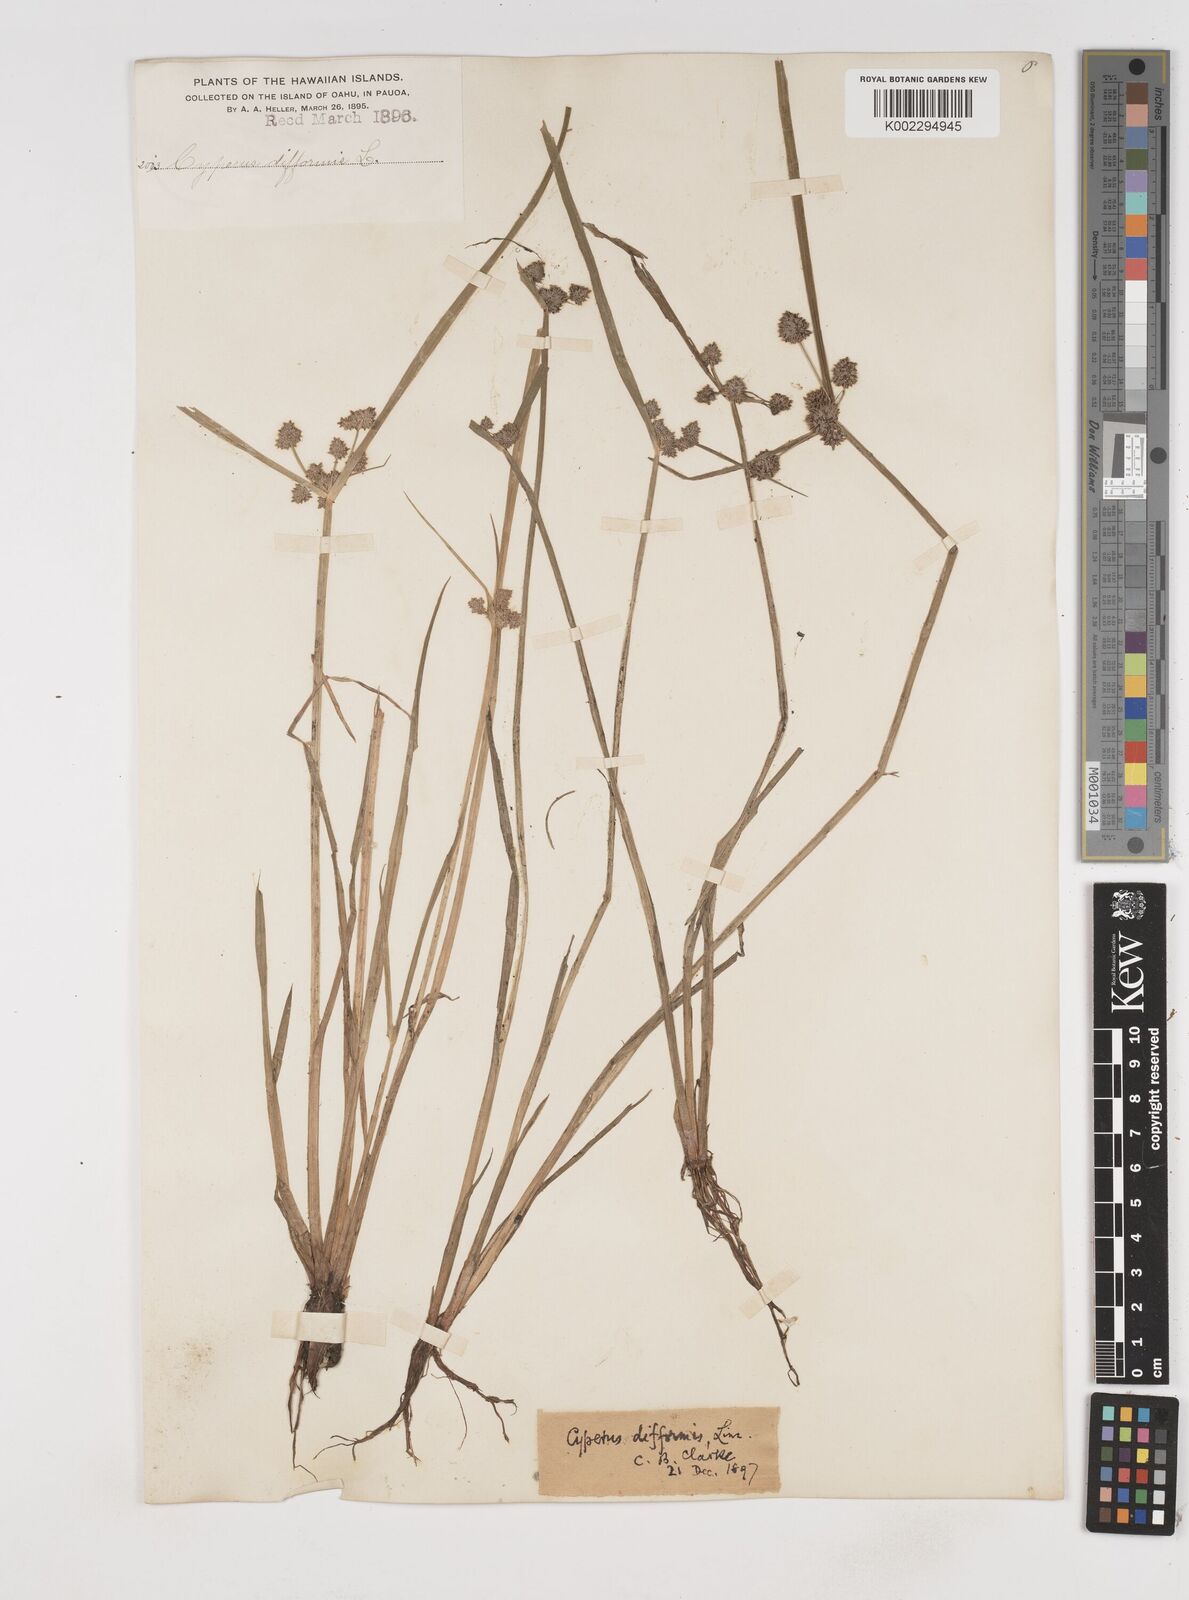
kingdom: Plantae
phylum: Tracheophyta
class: Liliopsida
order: Poales
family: Cyperaceae
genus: Cyperus
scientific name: Cyperus difformis
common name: Variable flatsedge
